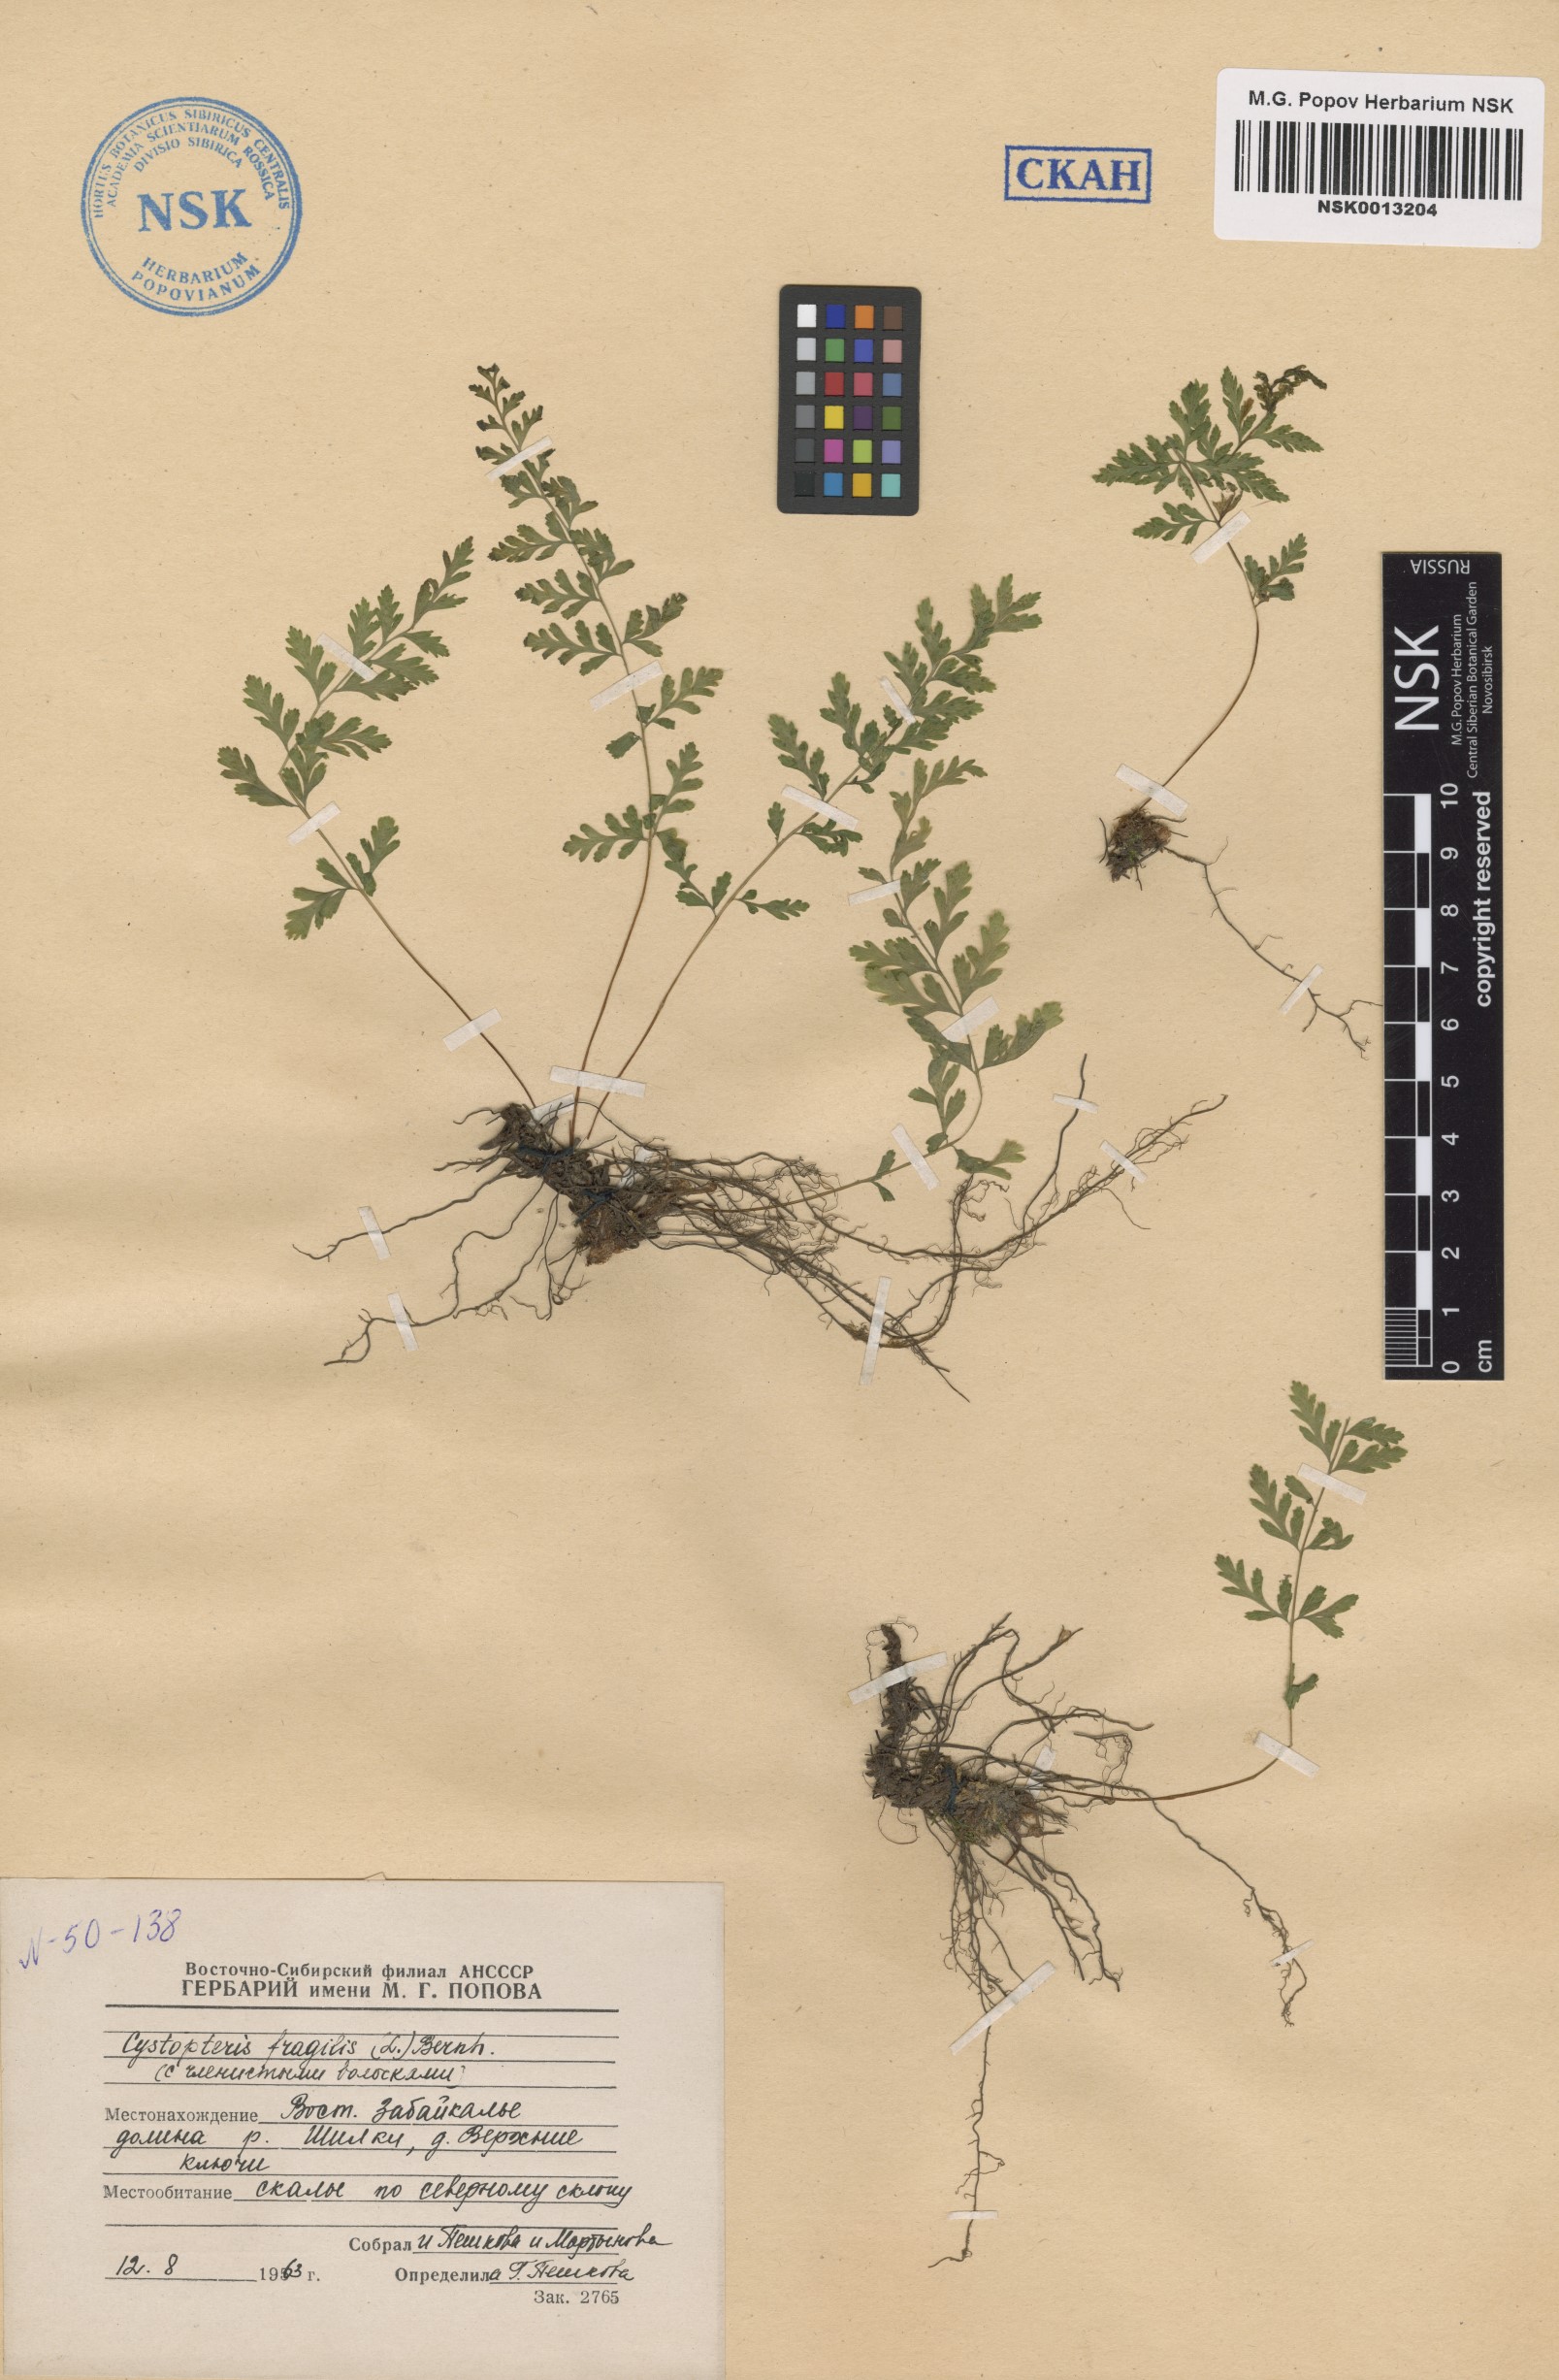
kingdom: Plantae
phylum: Tracheophyta
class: Polypodiopsida
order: Polypodiales
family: Cystopteridaceae
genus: Cystopteris
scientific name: Cystopteris fragilis
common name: Brittle bladder fern
